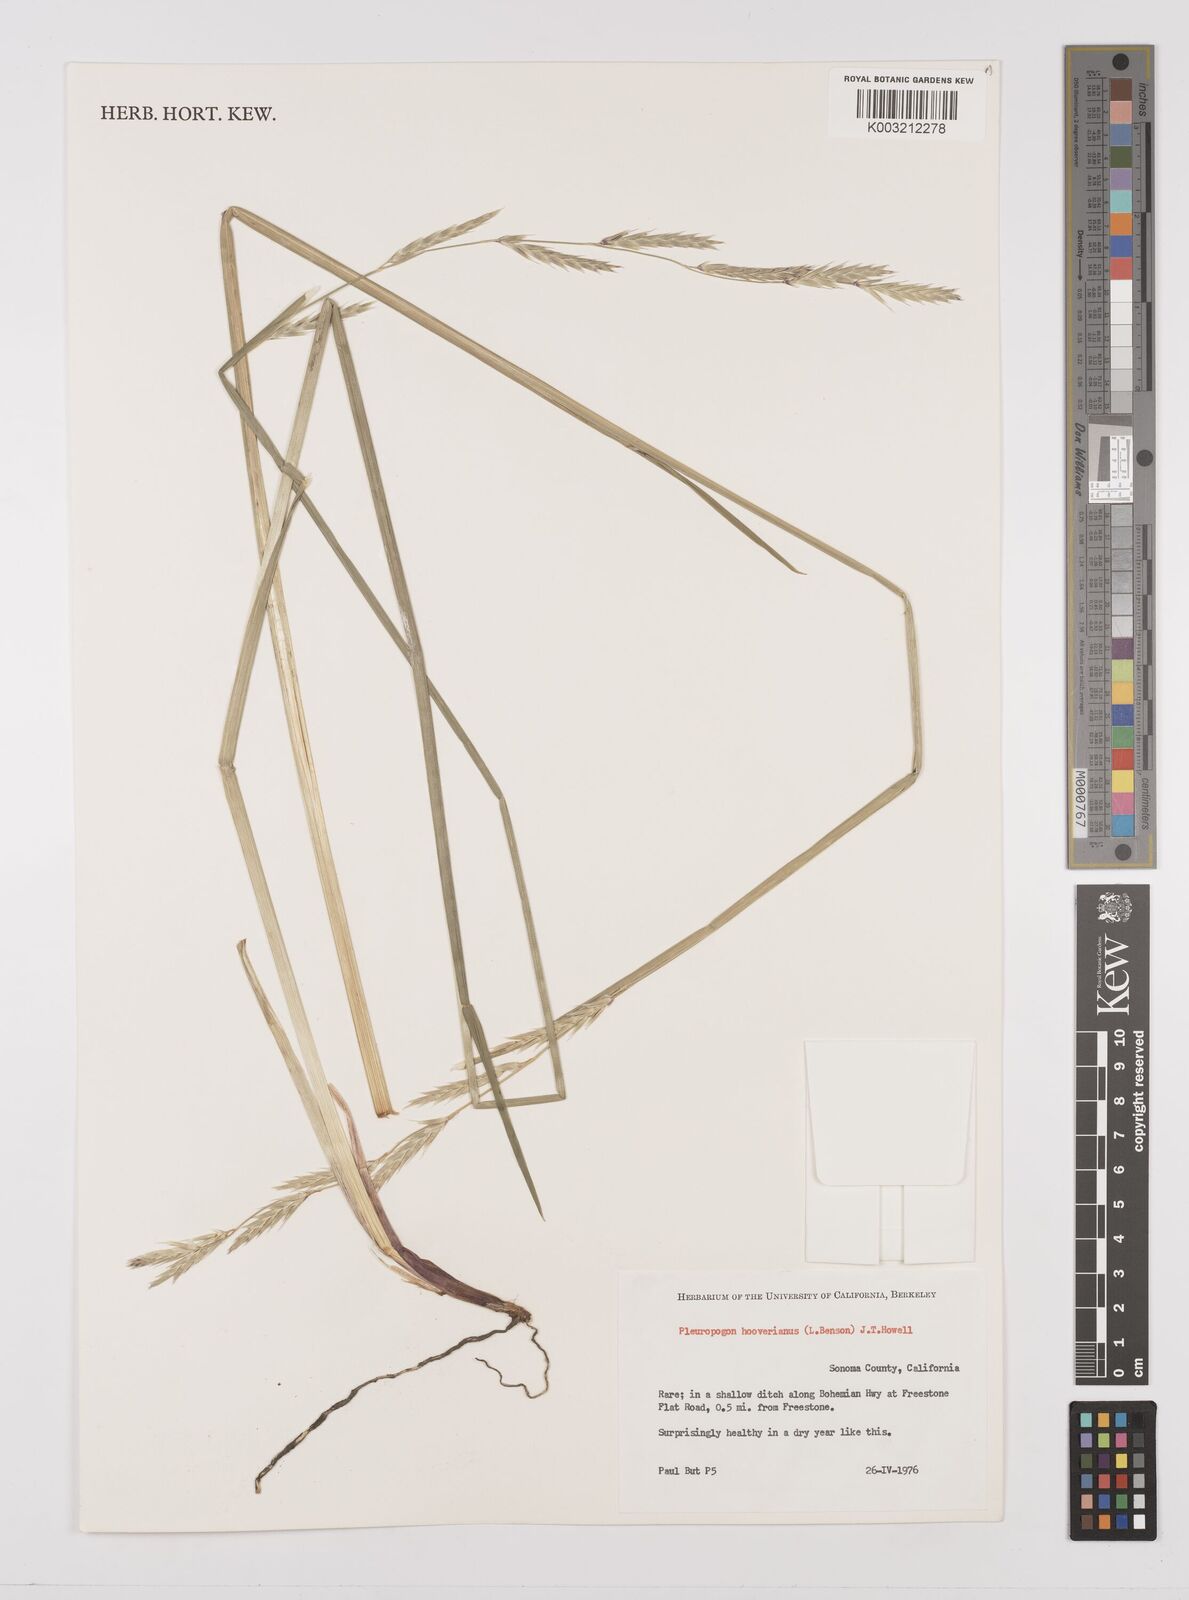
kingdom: Plantae
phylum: Tracheophyta
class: Liliopsida
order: Poales
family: Poaceae
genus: Pleuropogon
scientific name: Pleuropogon hooverianus
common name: North coast semaphore grass
